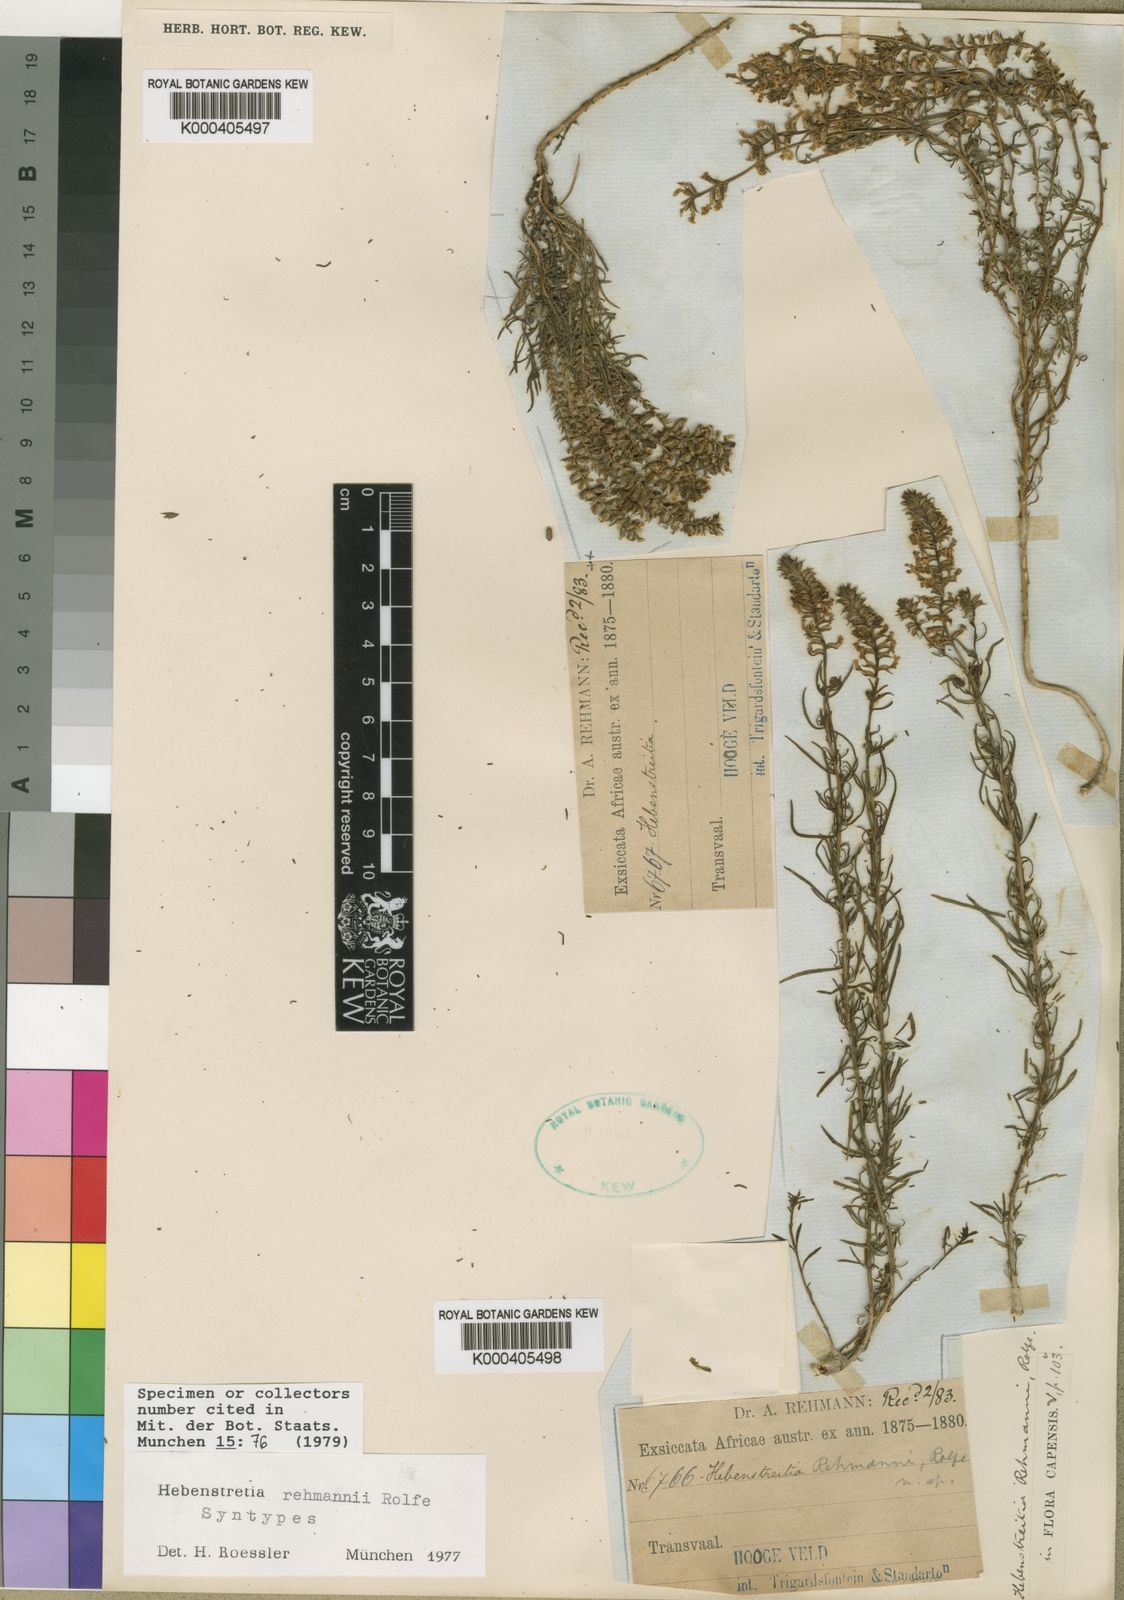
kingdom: Plantae
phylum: Tracheophyta
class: Magnoliopsida
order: Lamiales
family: Scrophulariaceae
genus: Hebenstretia
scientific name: Hebenstretia rehmannii
